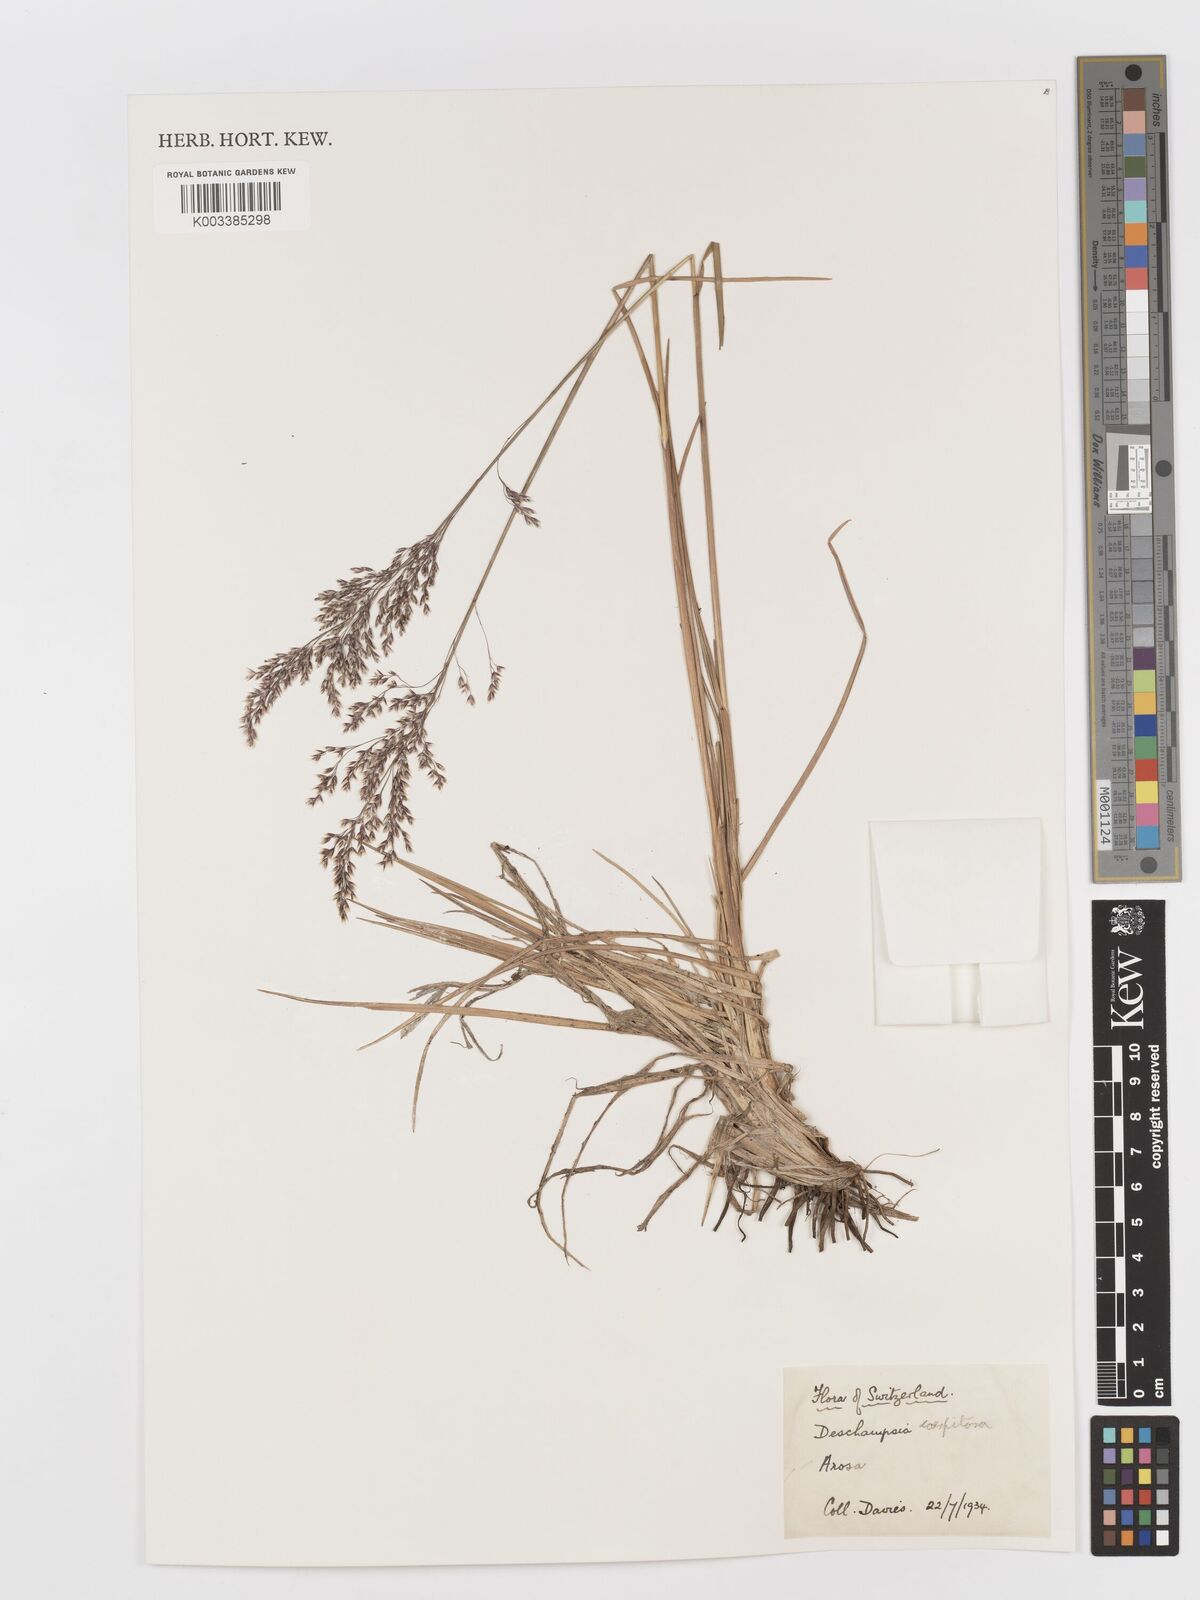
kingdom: Plantae
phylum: Tracheophyta
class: Liliopsida
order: Poales
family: Poaceae
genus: Deschampsia
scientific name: Deschampsia cespitosa
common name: Tufted hair-grass
